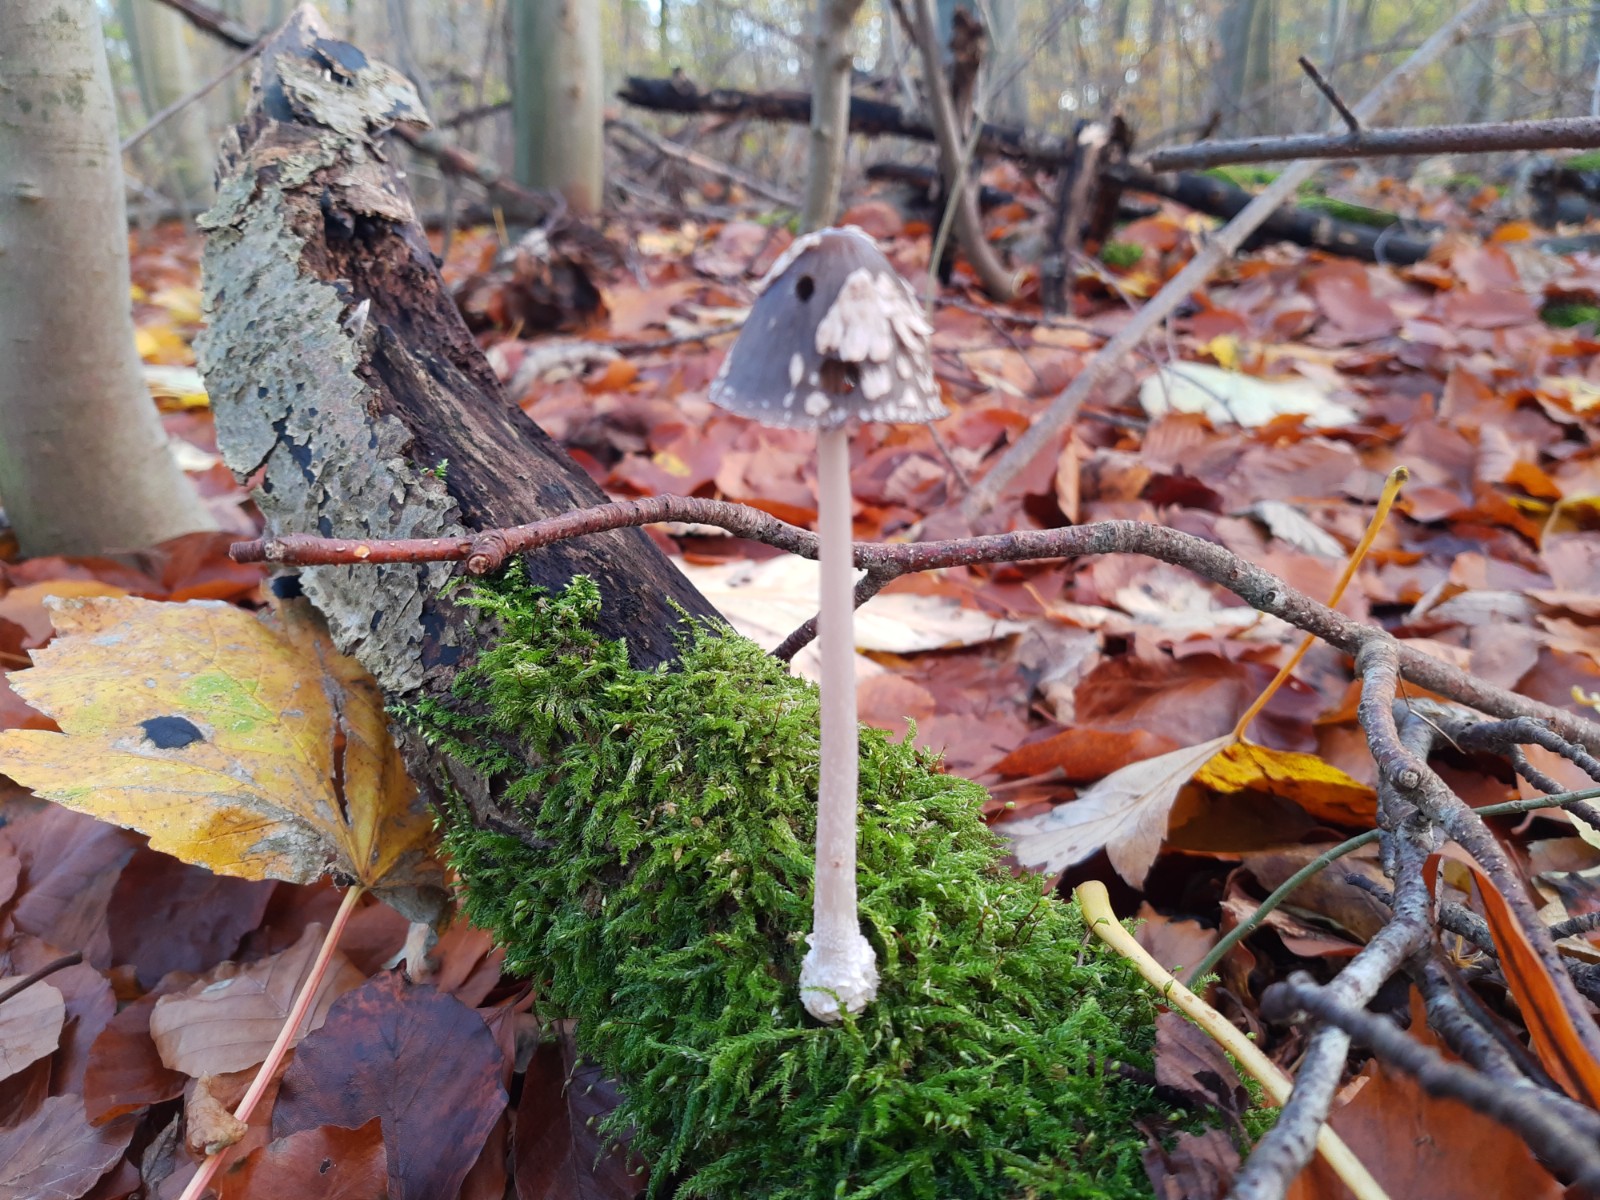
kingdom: Fungi
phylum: Basidiomycota
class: Agaricomycetes
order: Agaricales
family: Psathyrellaceae
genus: Coprinopsis
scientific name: Coprinopsis picacea
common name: skade-blækhat
